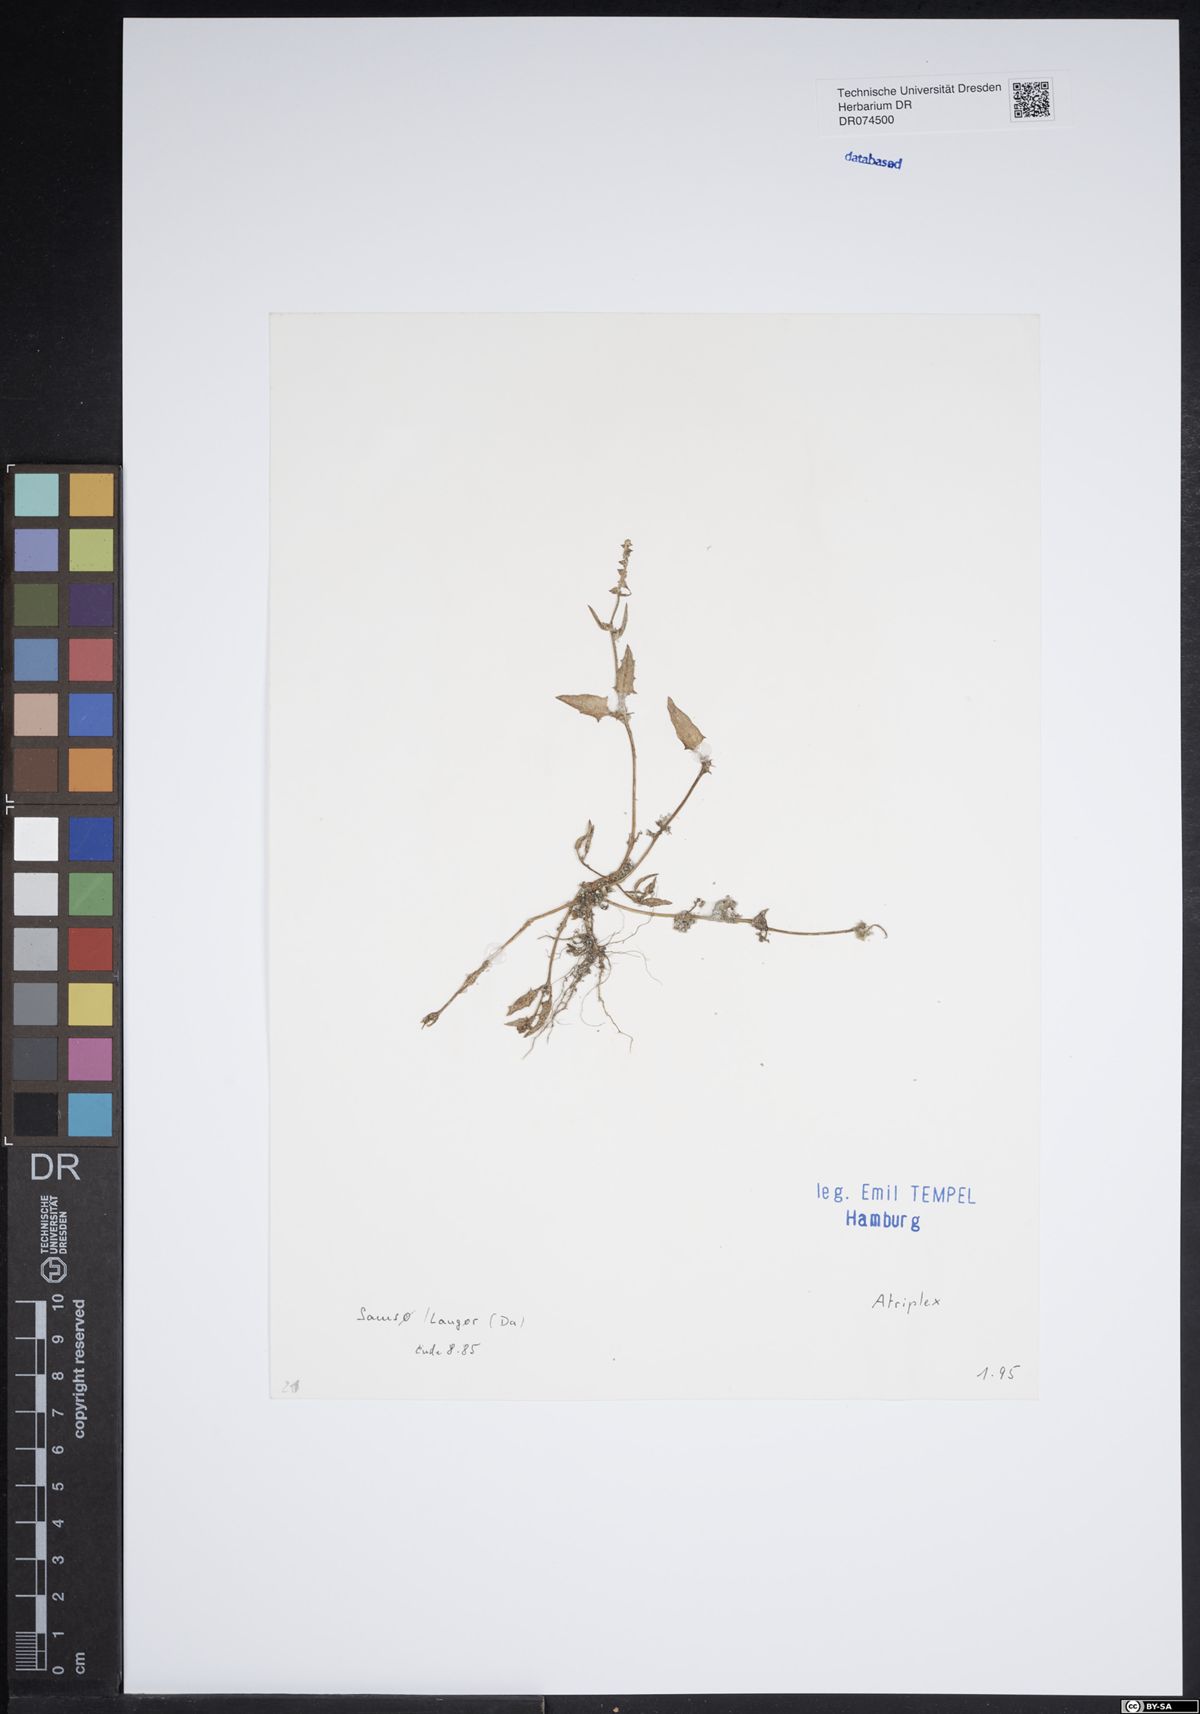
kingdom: Plantae
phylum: Tracheophyta
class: Magnoliopsida
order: Caryophyllales
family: Amaranthaceae
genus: Atriplex
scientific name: Atriplex
